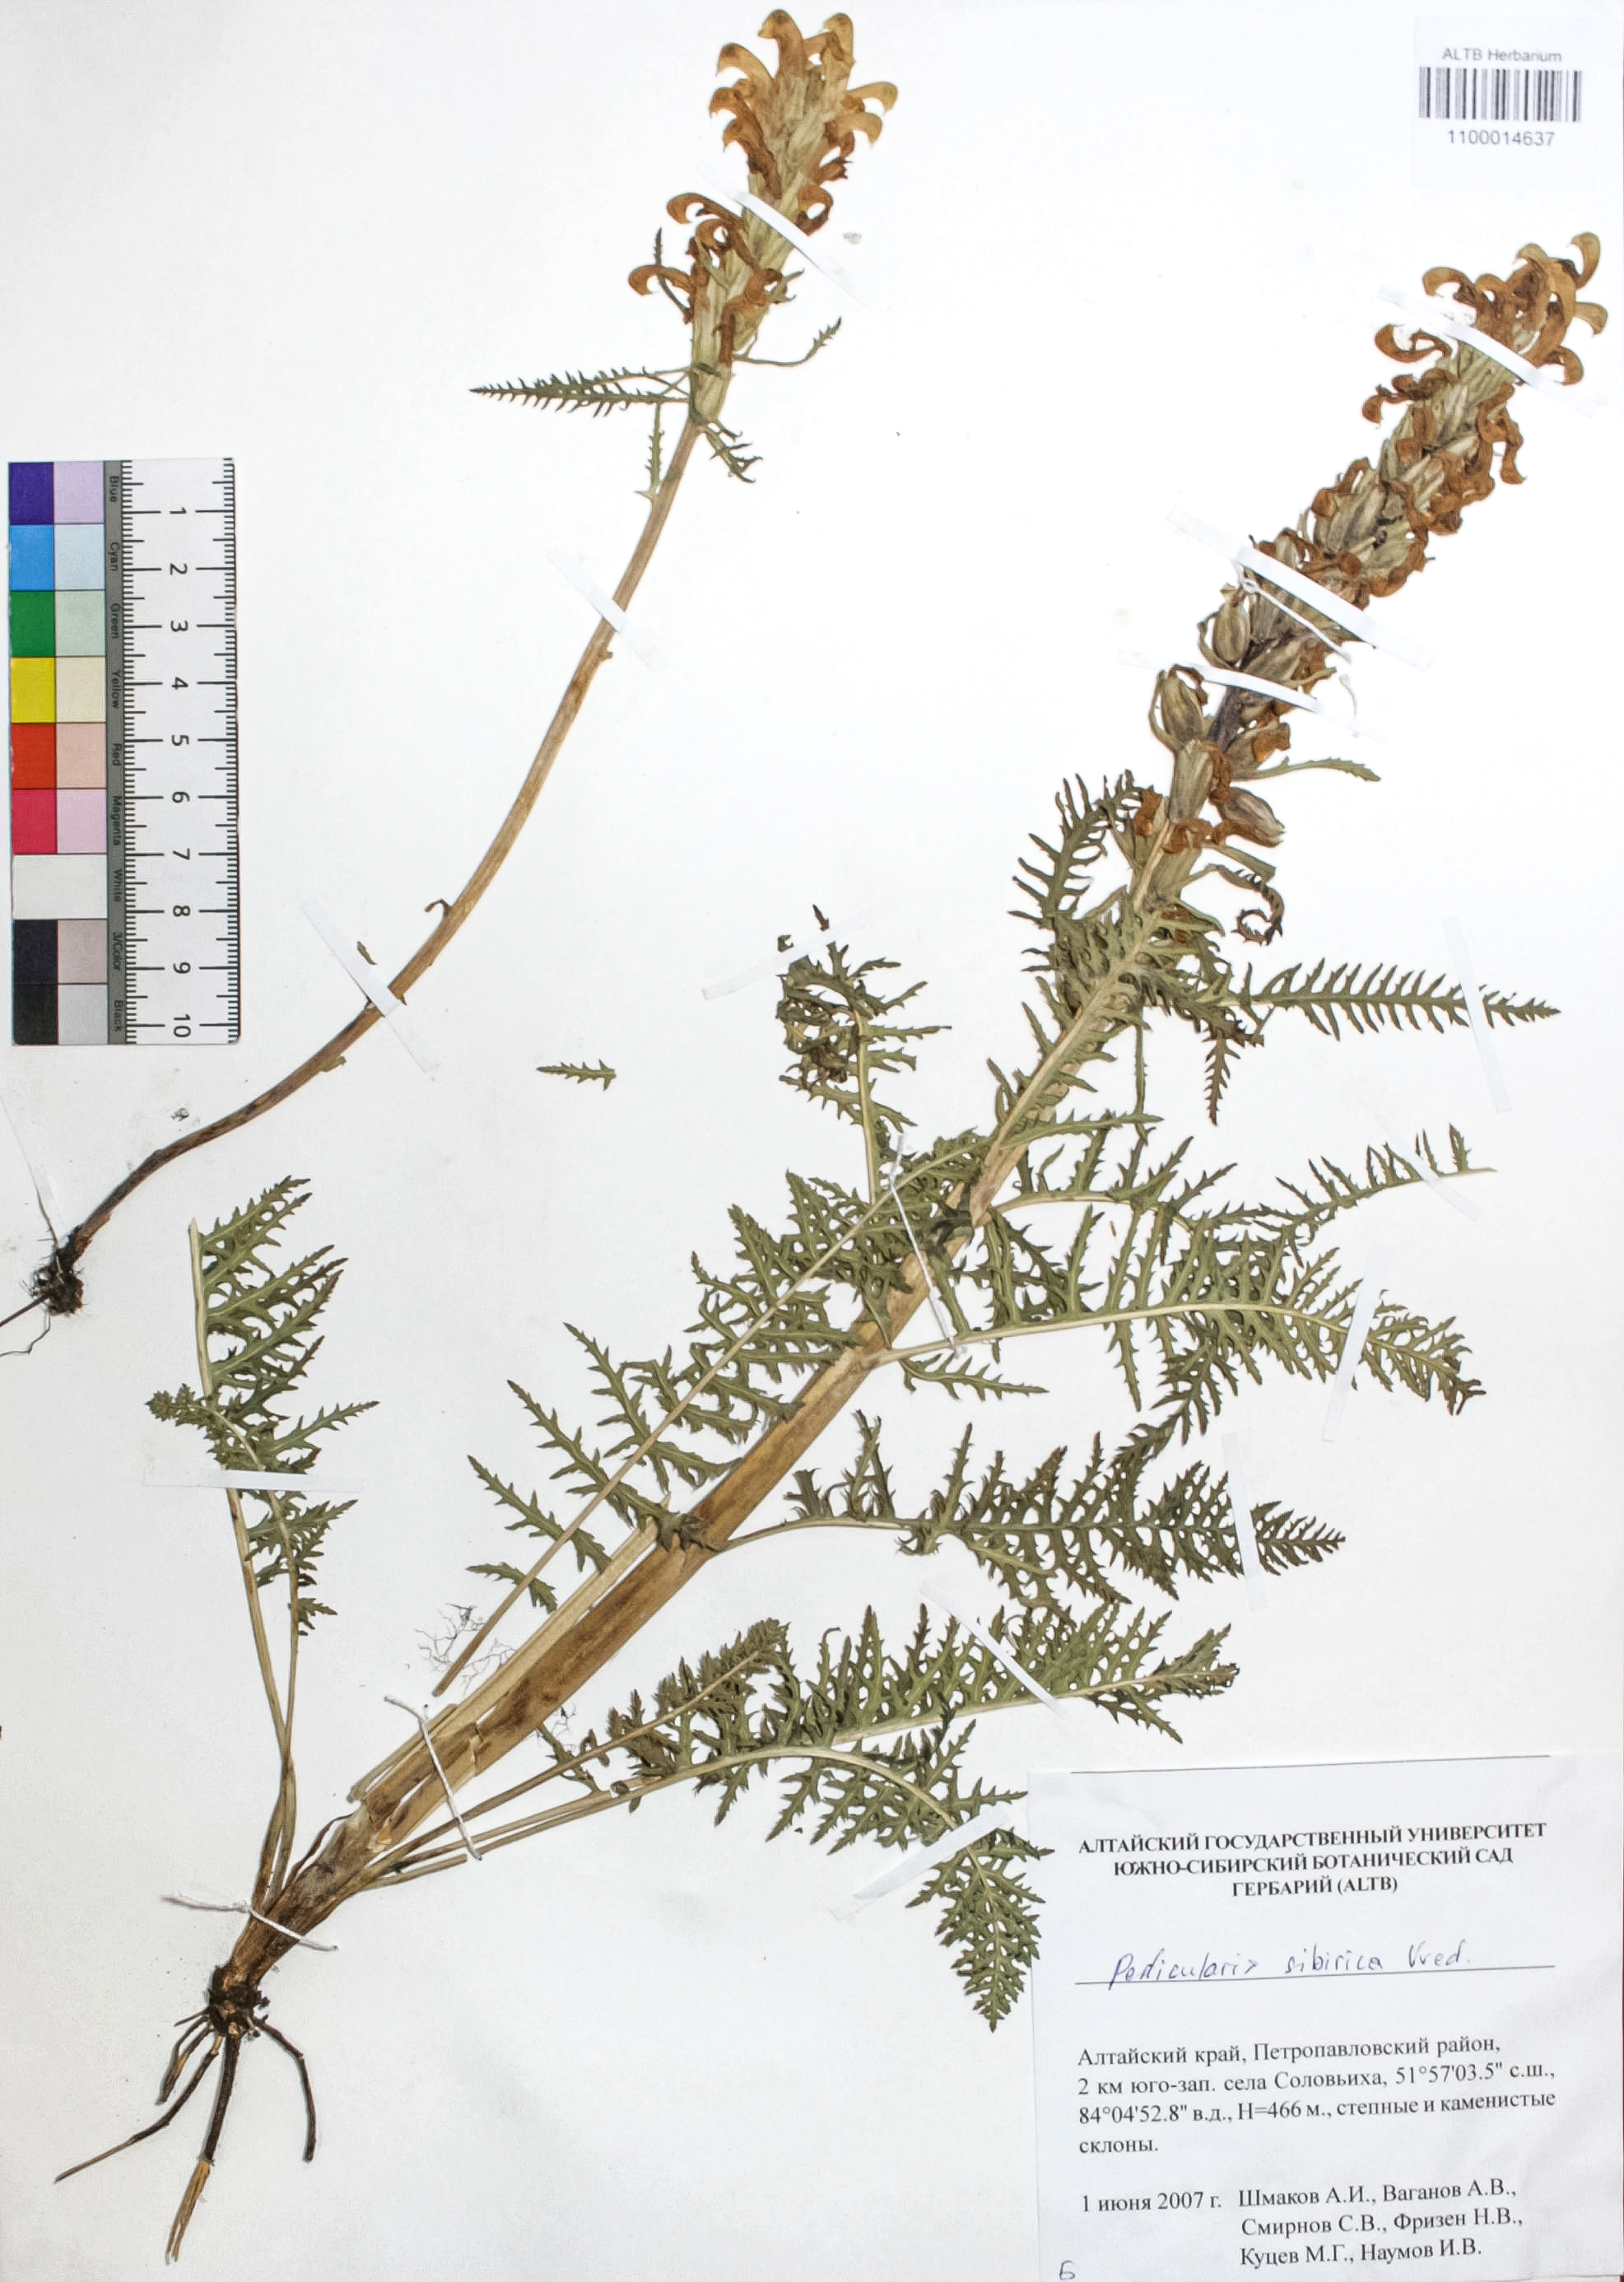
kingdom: Plantae
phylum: Tracheophyta
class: Magnoliopsida
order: Lamiales
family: Orobanchaceae
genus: Pedicularis
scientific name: Pedicularis sibirica
